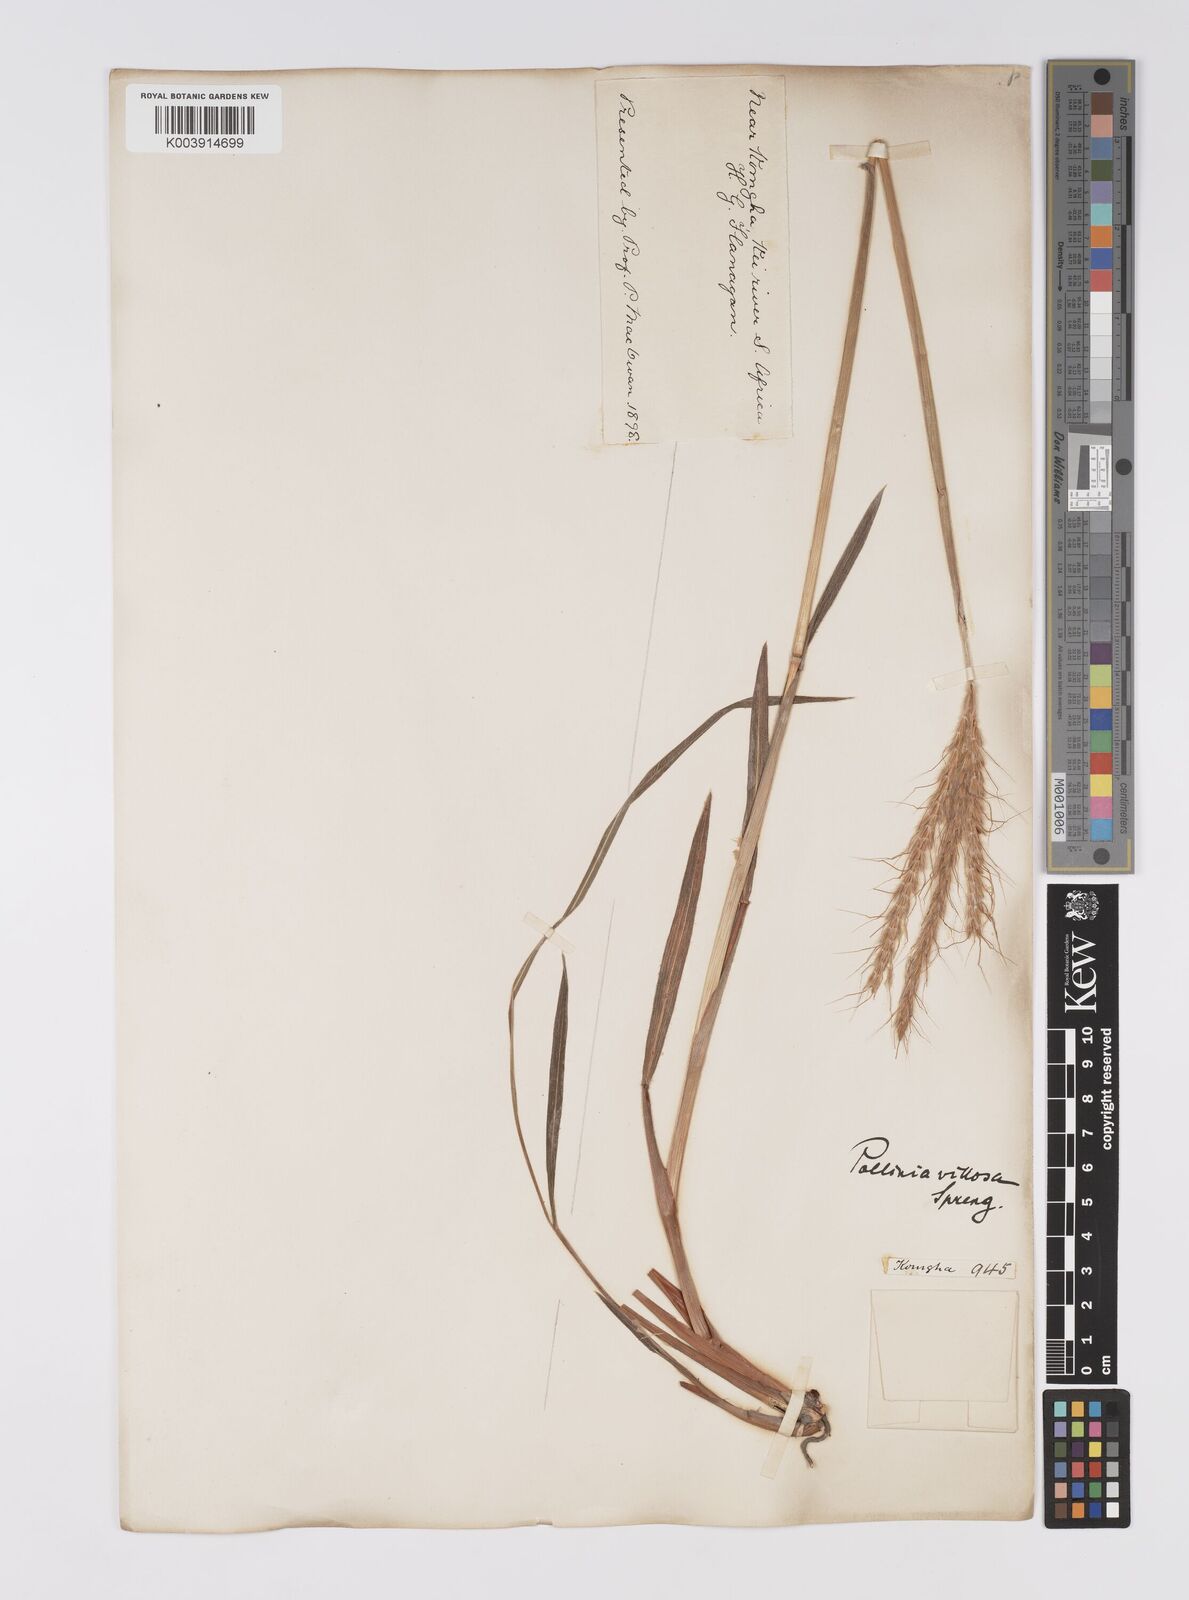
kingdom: Plantae
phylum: Tracheophyta
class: Liliopsida
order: Poales
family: Poaceae
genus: Eulalia
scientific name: Eulalia villosa
